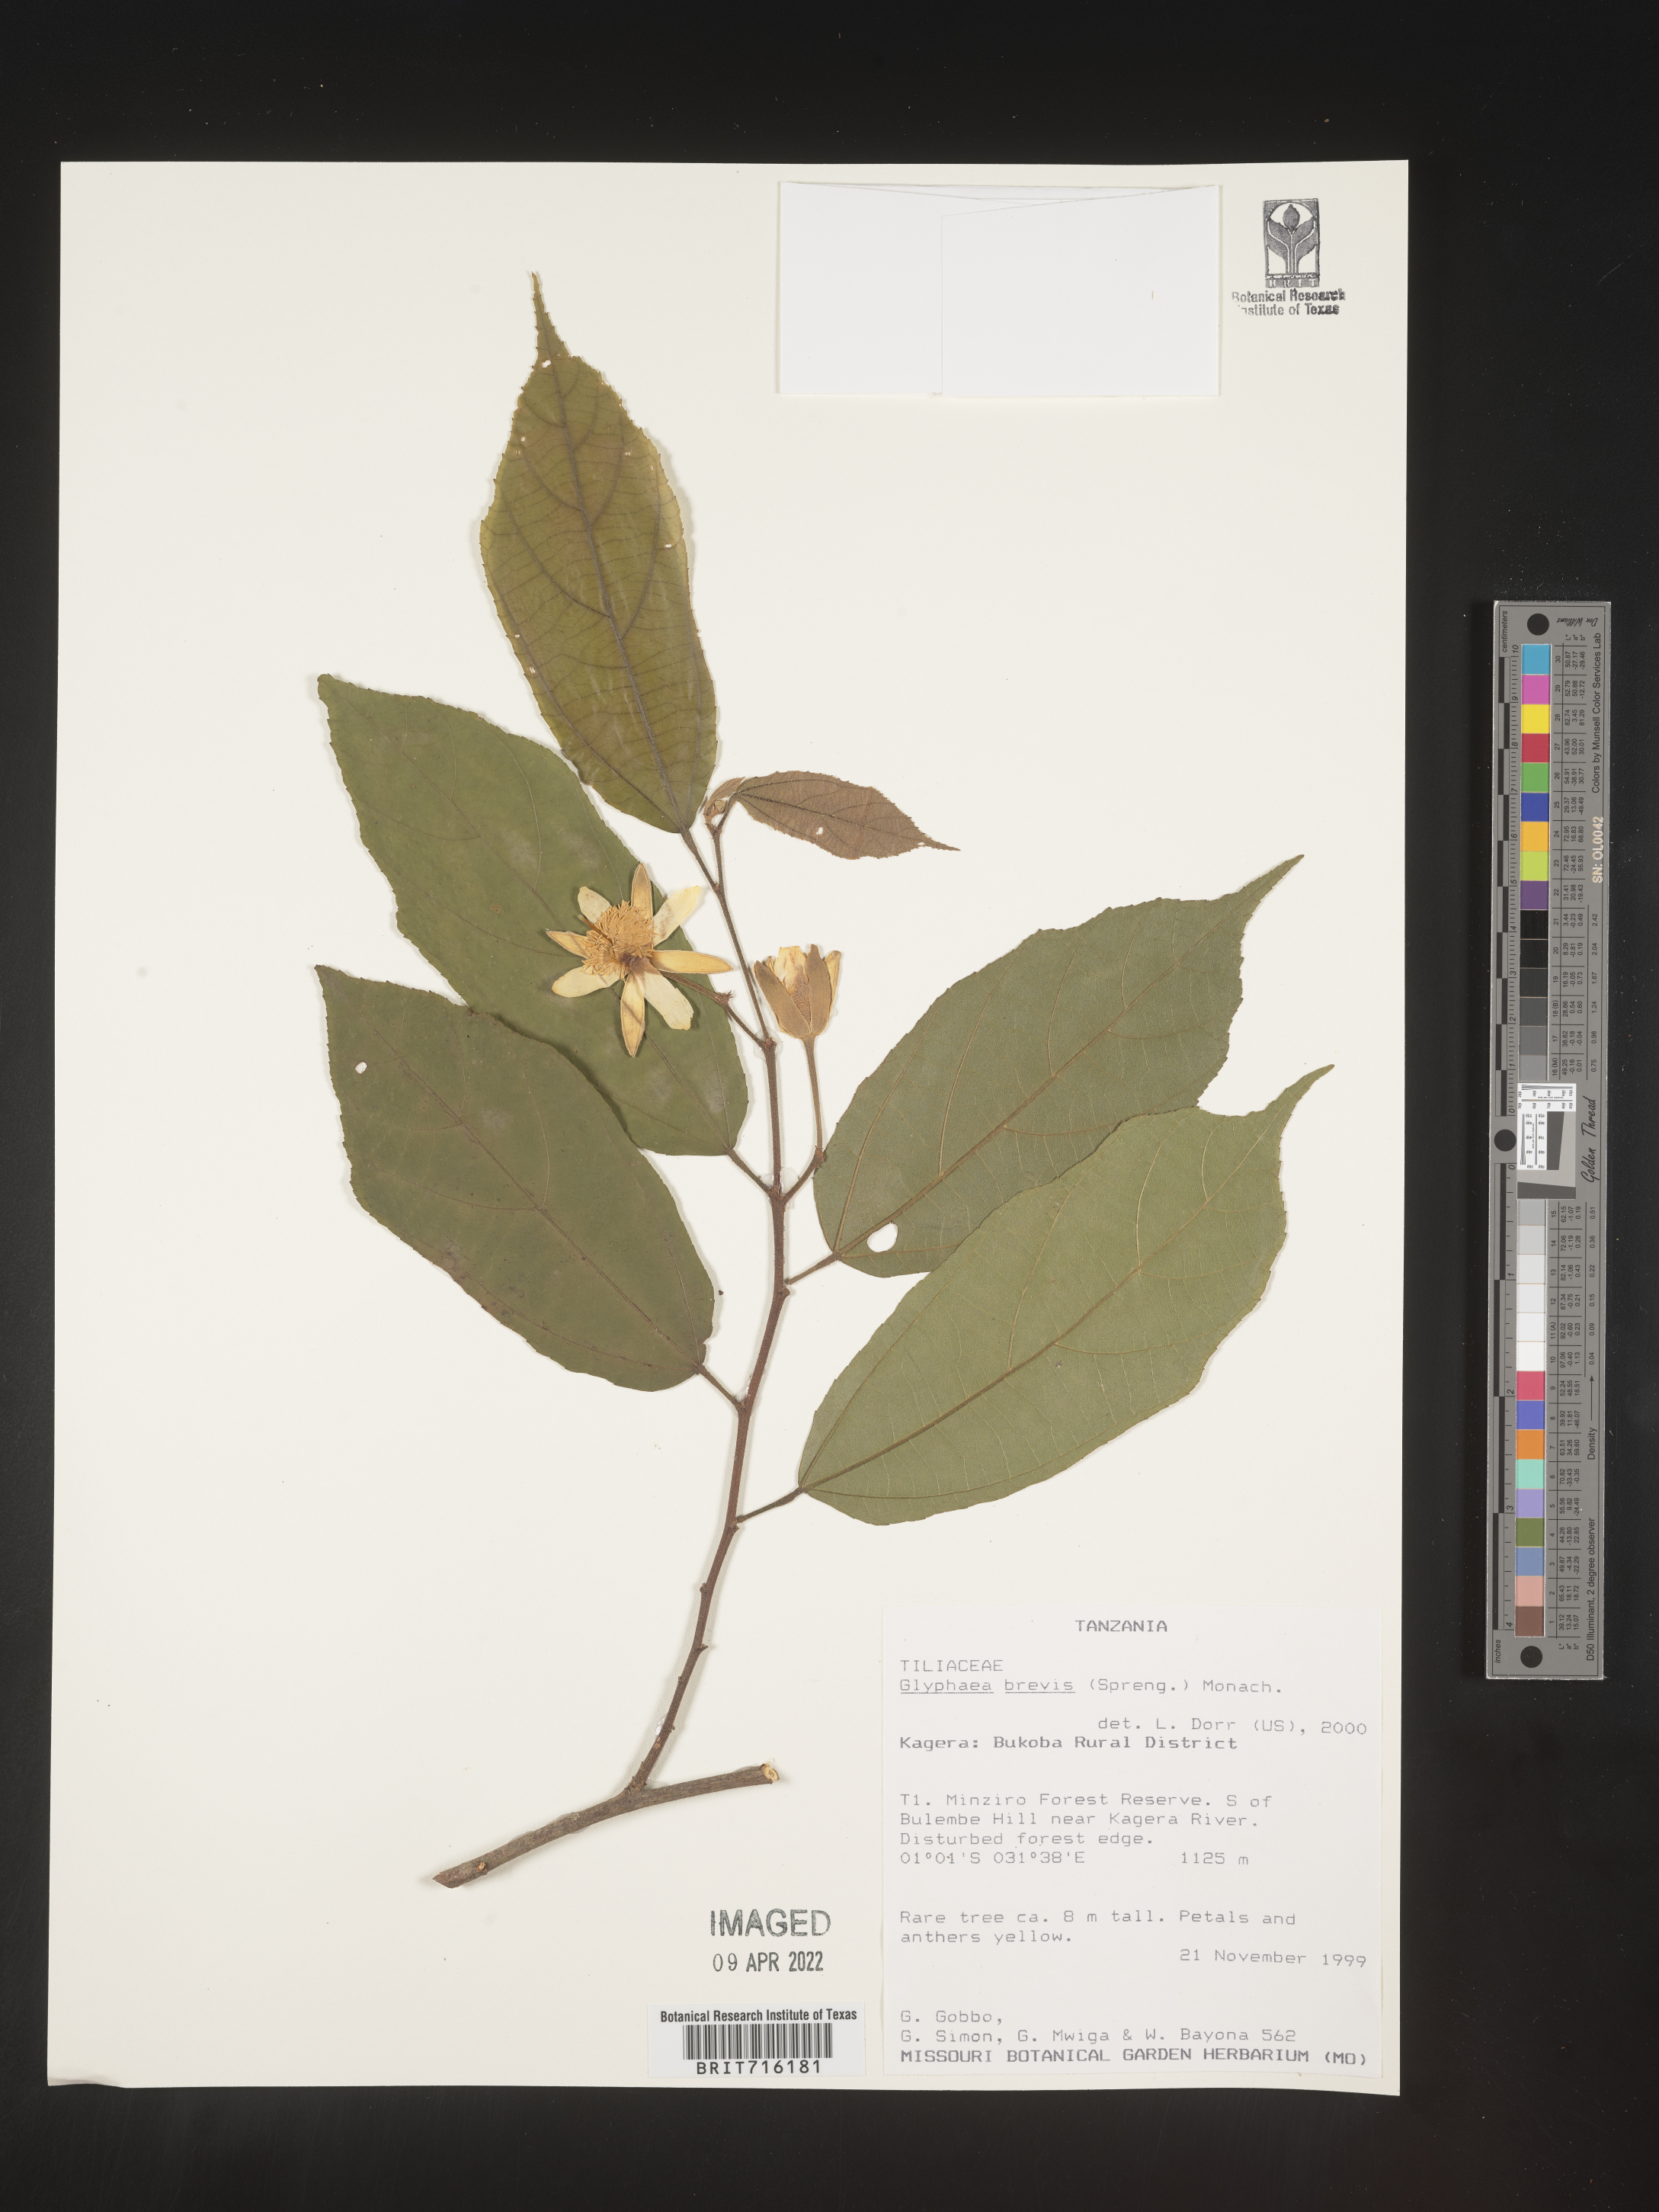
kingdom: Plantae
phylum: Tracheophyta
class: Magnoliopsida
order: Malvales
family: Malvaceae
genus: Glyphaea
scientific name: Glyphaea
